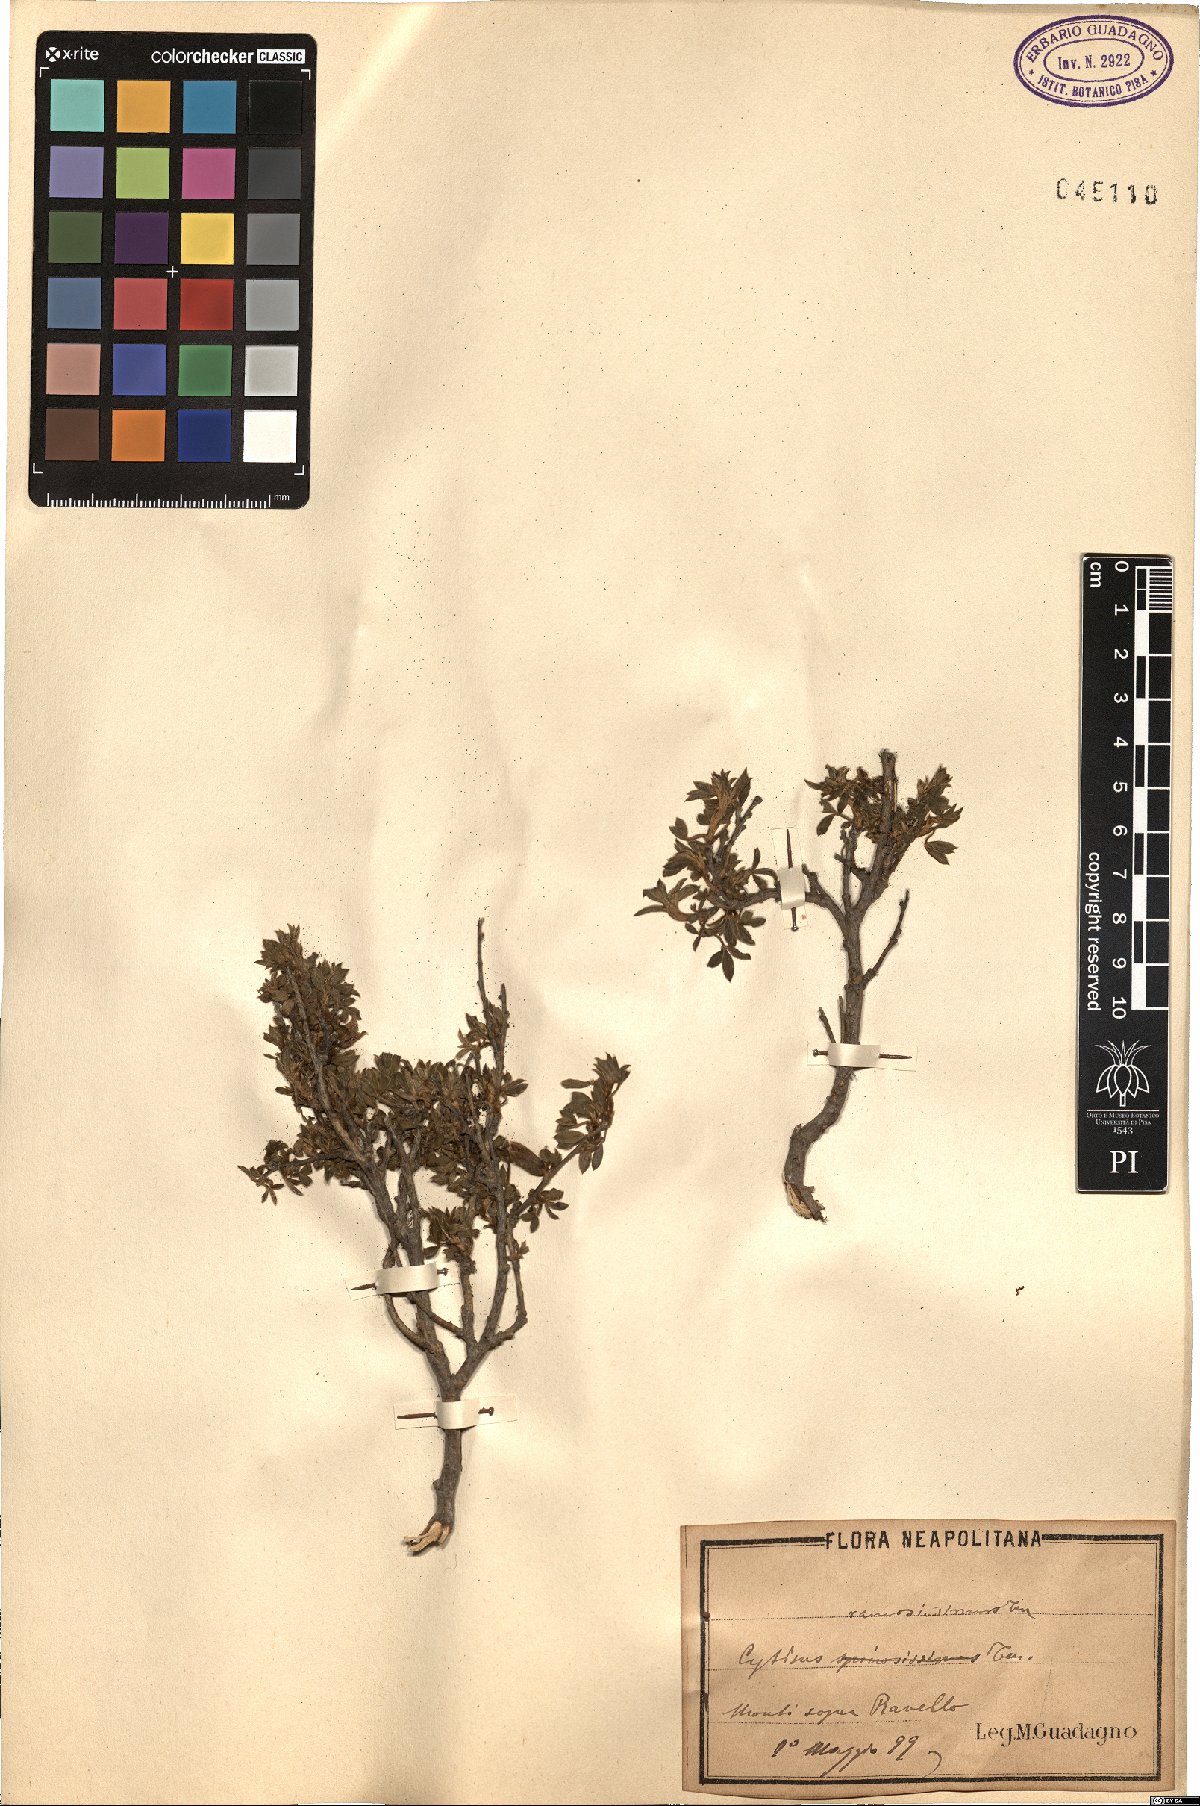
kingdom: Plantae
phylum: Tracheophyta
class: Magnoliopsida
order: Fabales
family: Fabaceae
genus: Chamaecytisus
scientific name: Chamaecytisus spinescens
